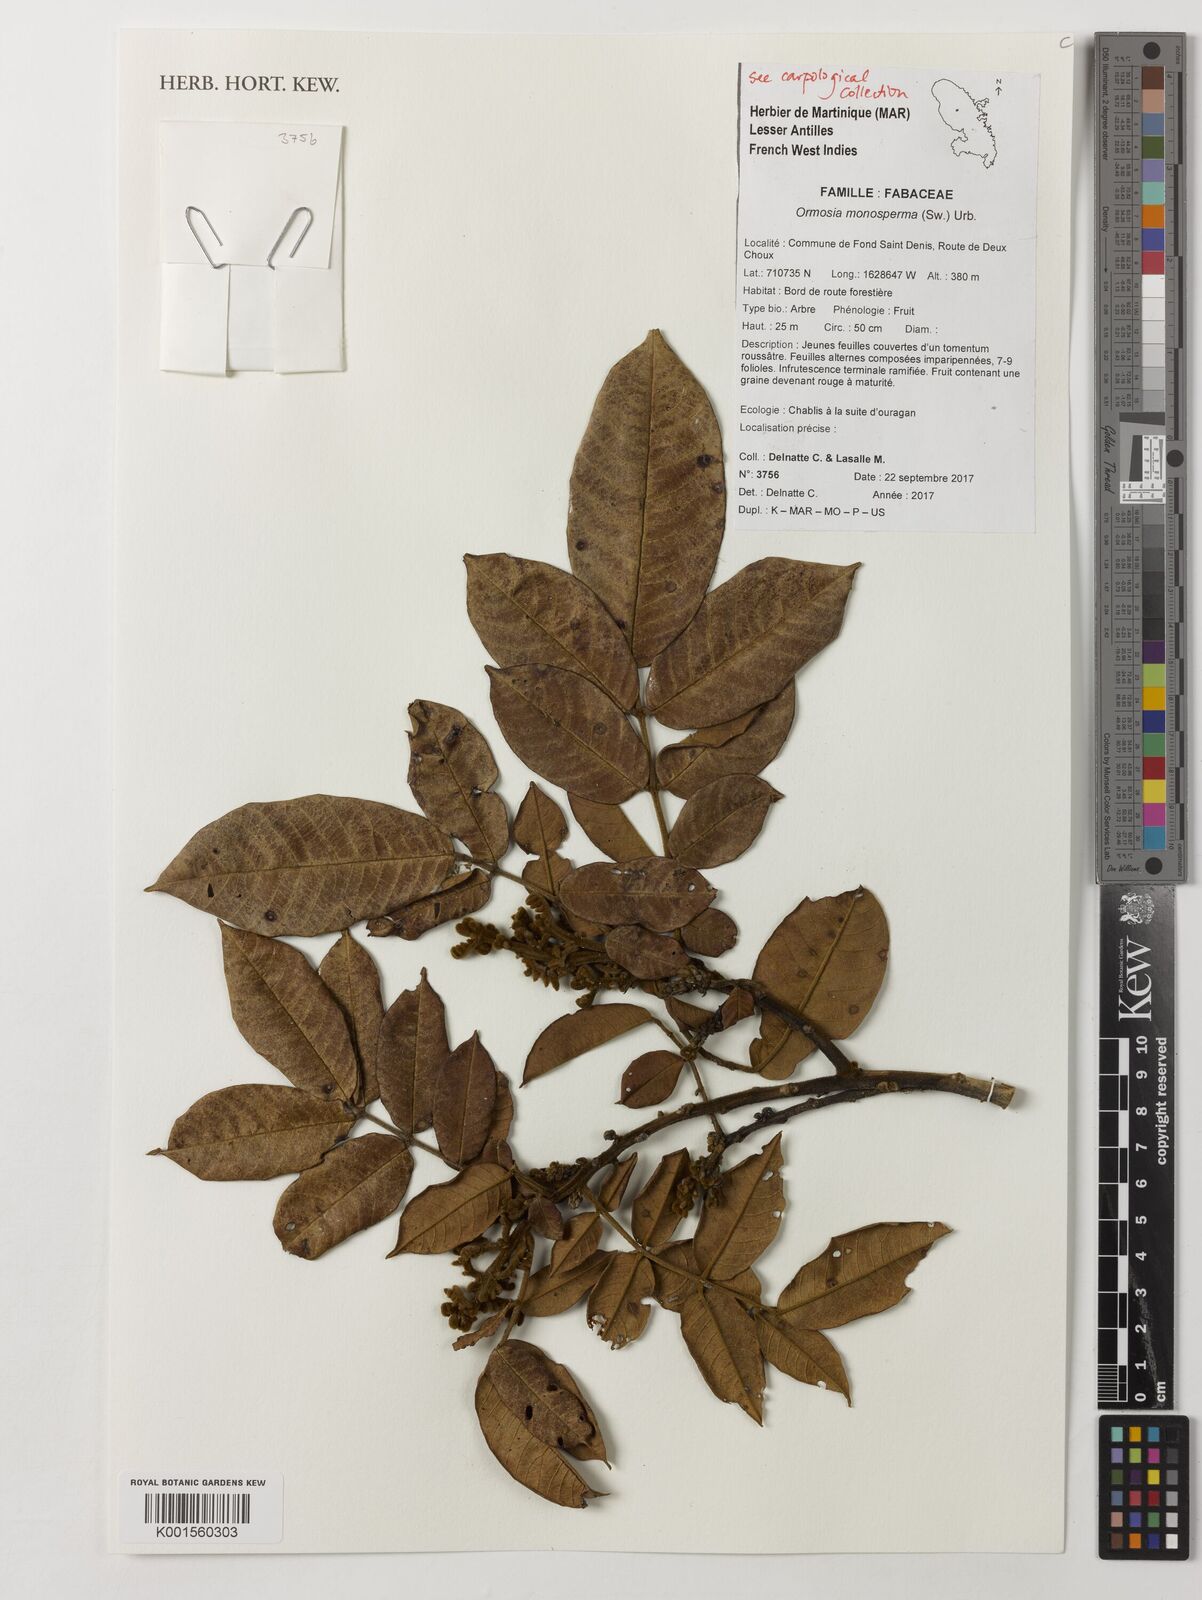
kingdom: Plantae
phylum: Tracheophyta
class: Magnoliopsida
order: Fabales
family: Fabaceae
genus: Ormosia
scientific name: Ormosia monosperma
